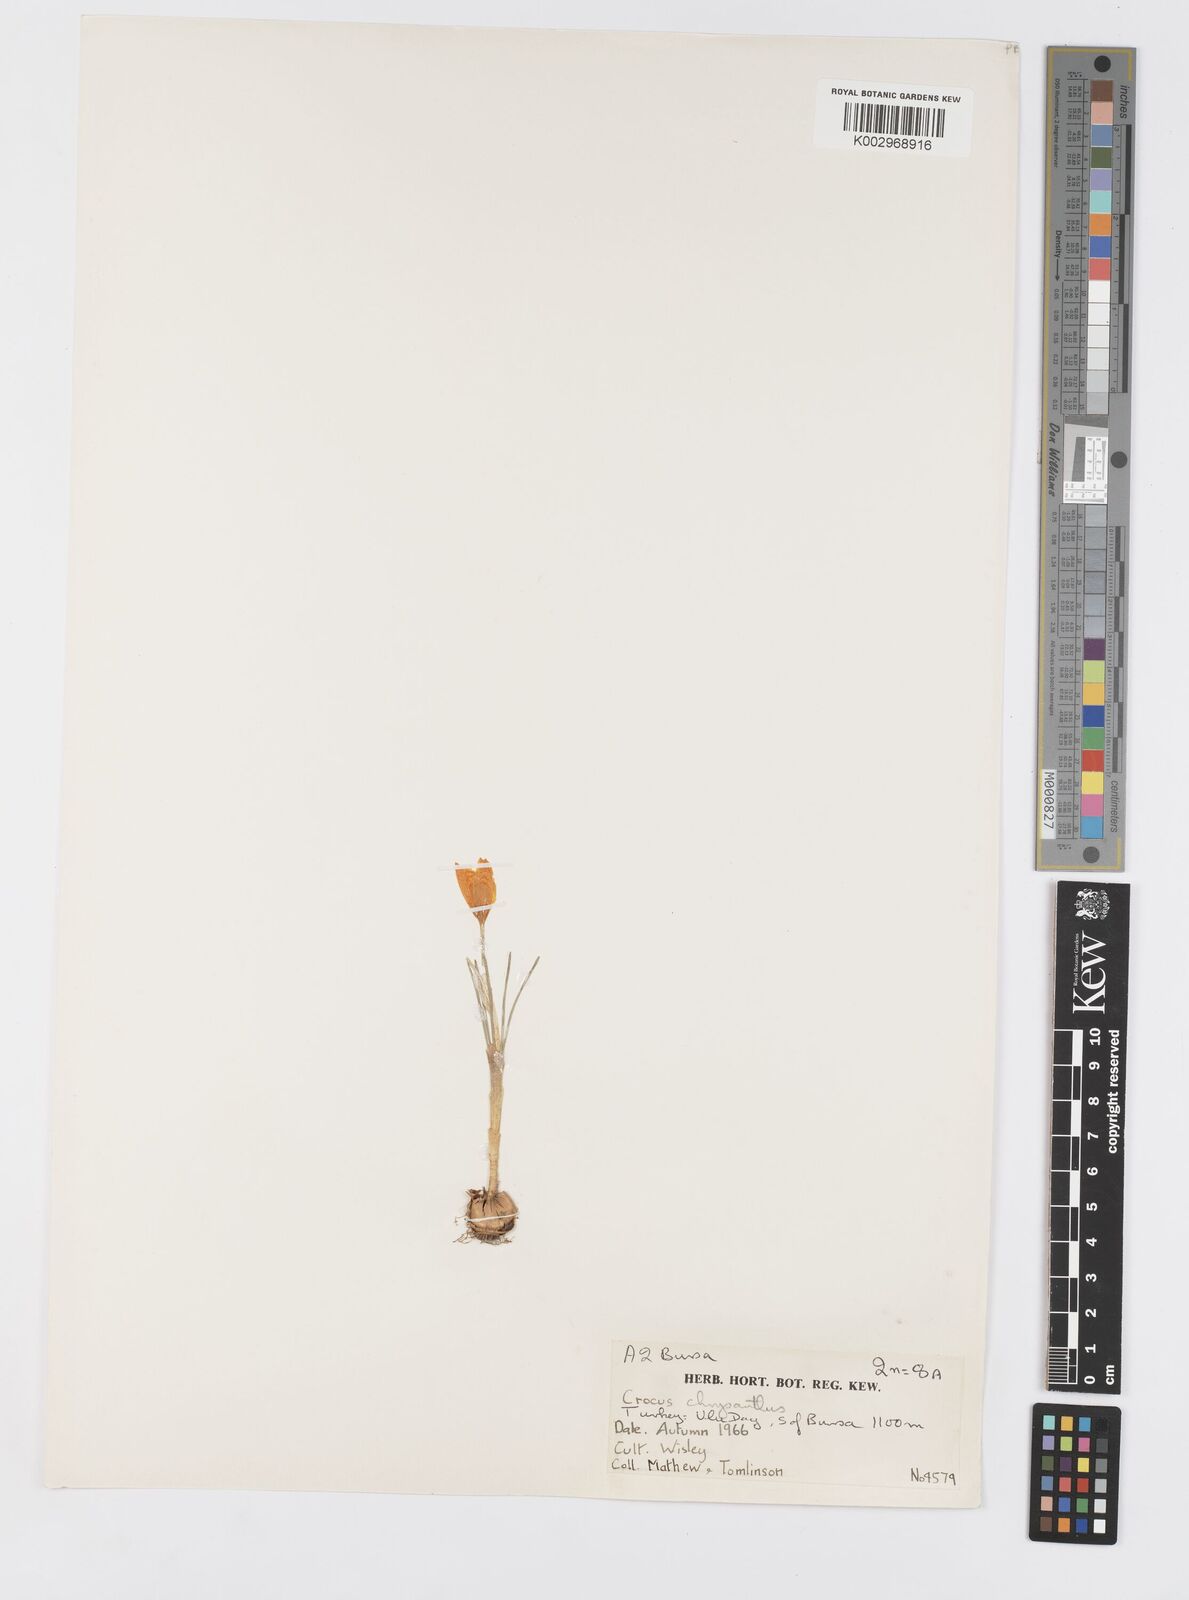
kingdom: Plantae
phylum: Tracheophyta
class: Liliopsida
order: Asparagales
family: Iridaceae
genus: Crocus
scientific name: Crocus
